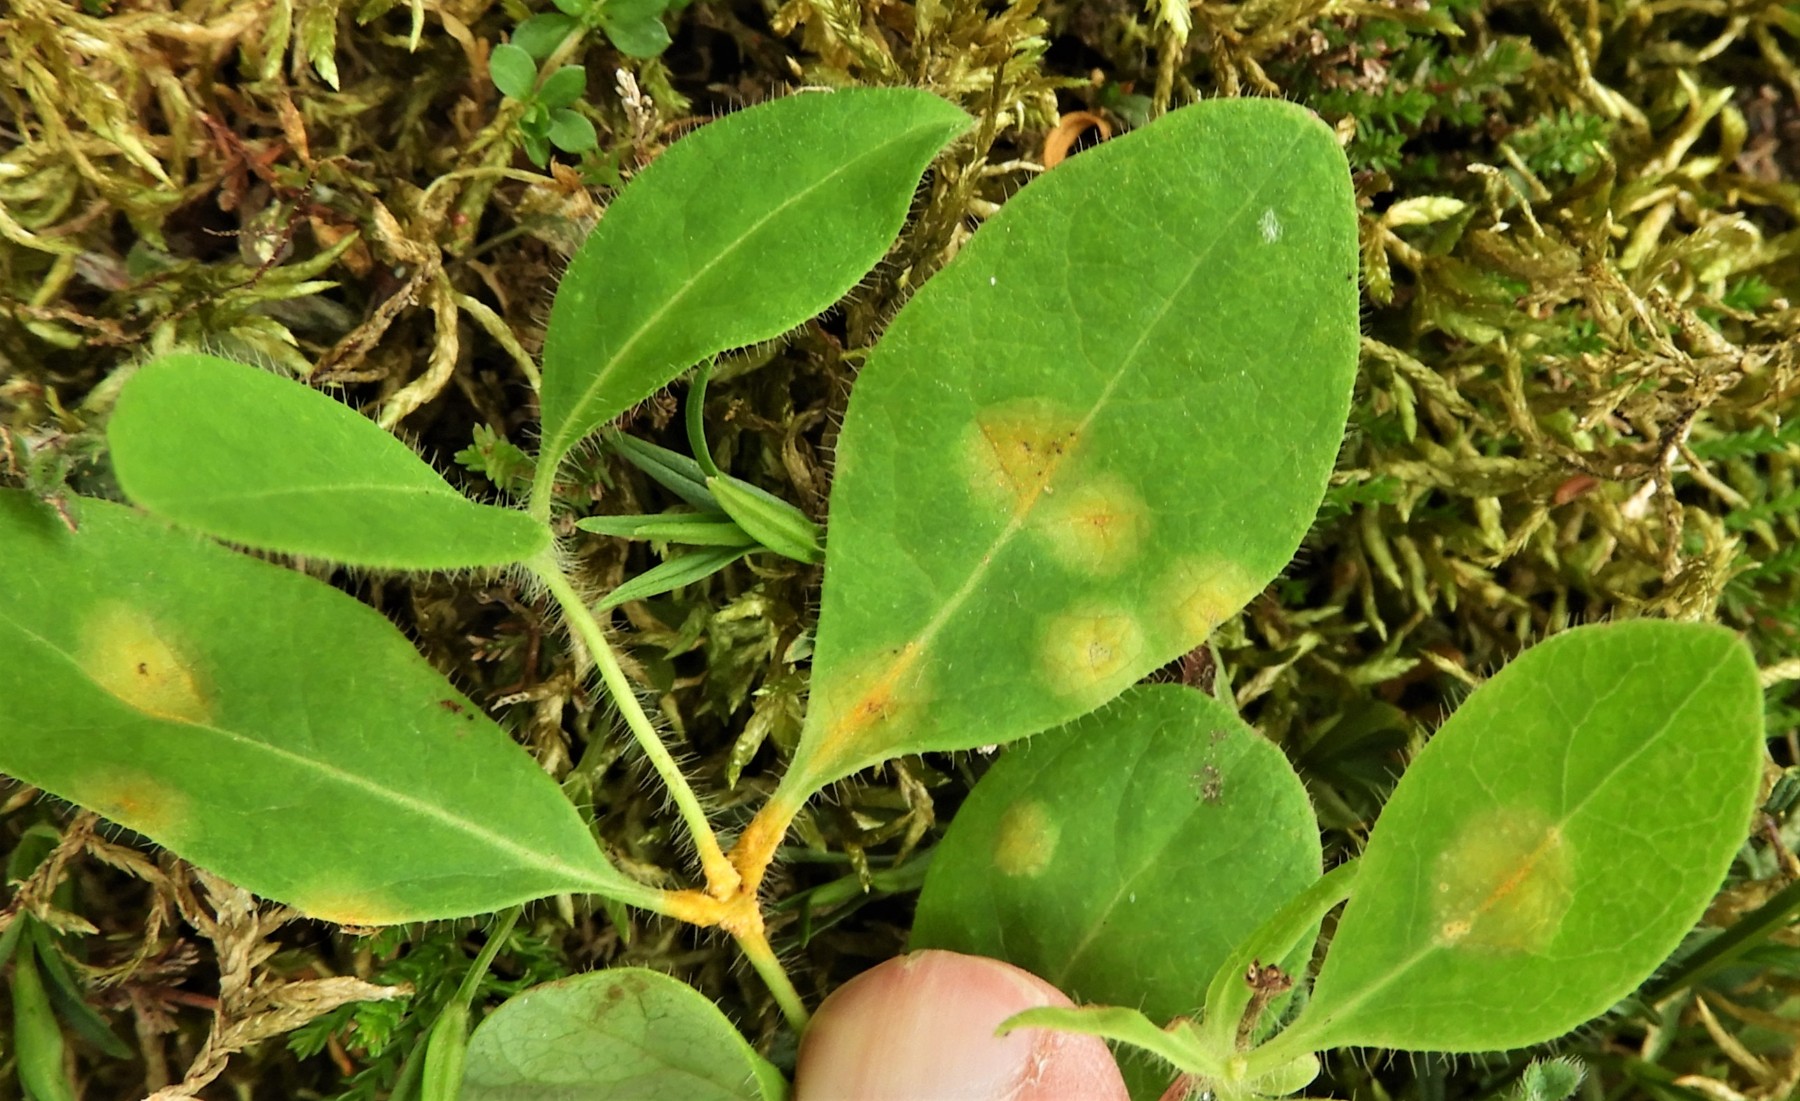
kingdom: Fungi
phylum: Basidiomycota
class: Pucciniomycetes
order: Pucciniales
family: Pucciniaceae
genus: Puccinia
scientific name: Puccinia festucae
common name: gedeblad-tvecellerust
